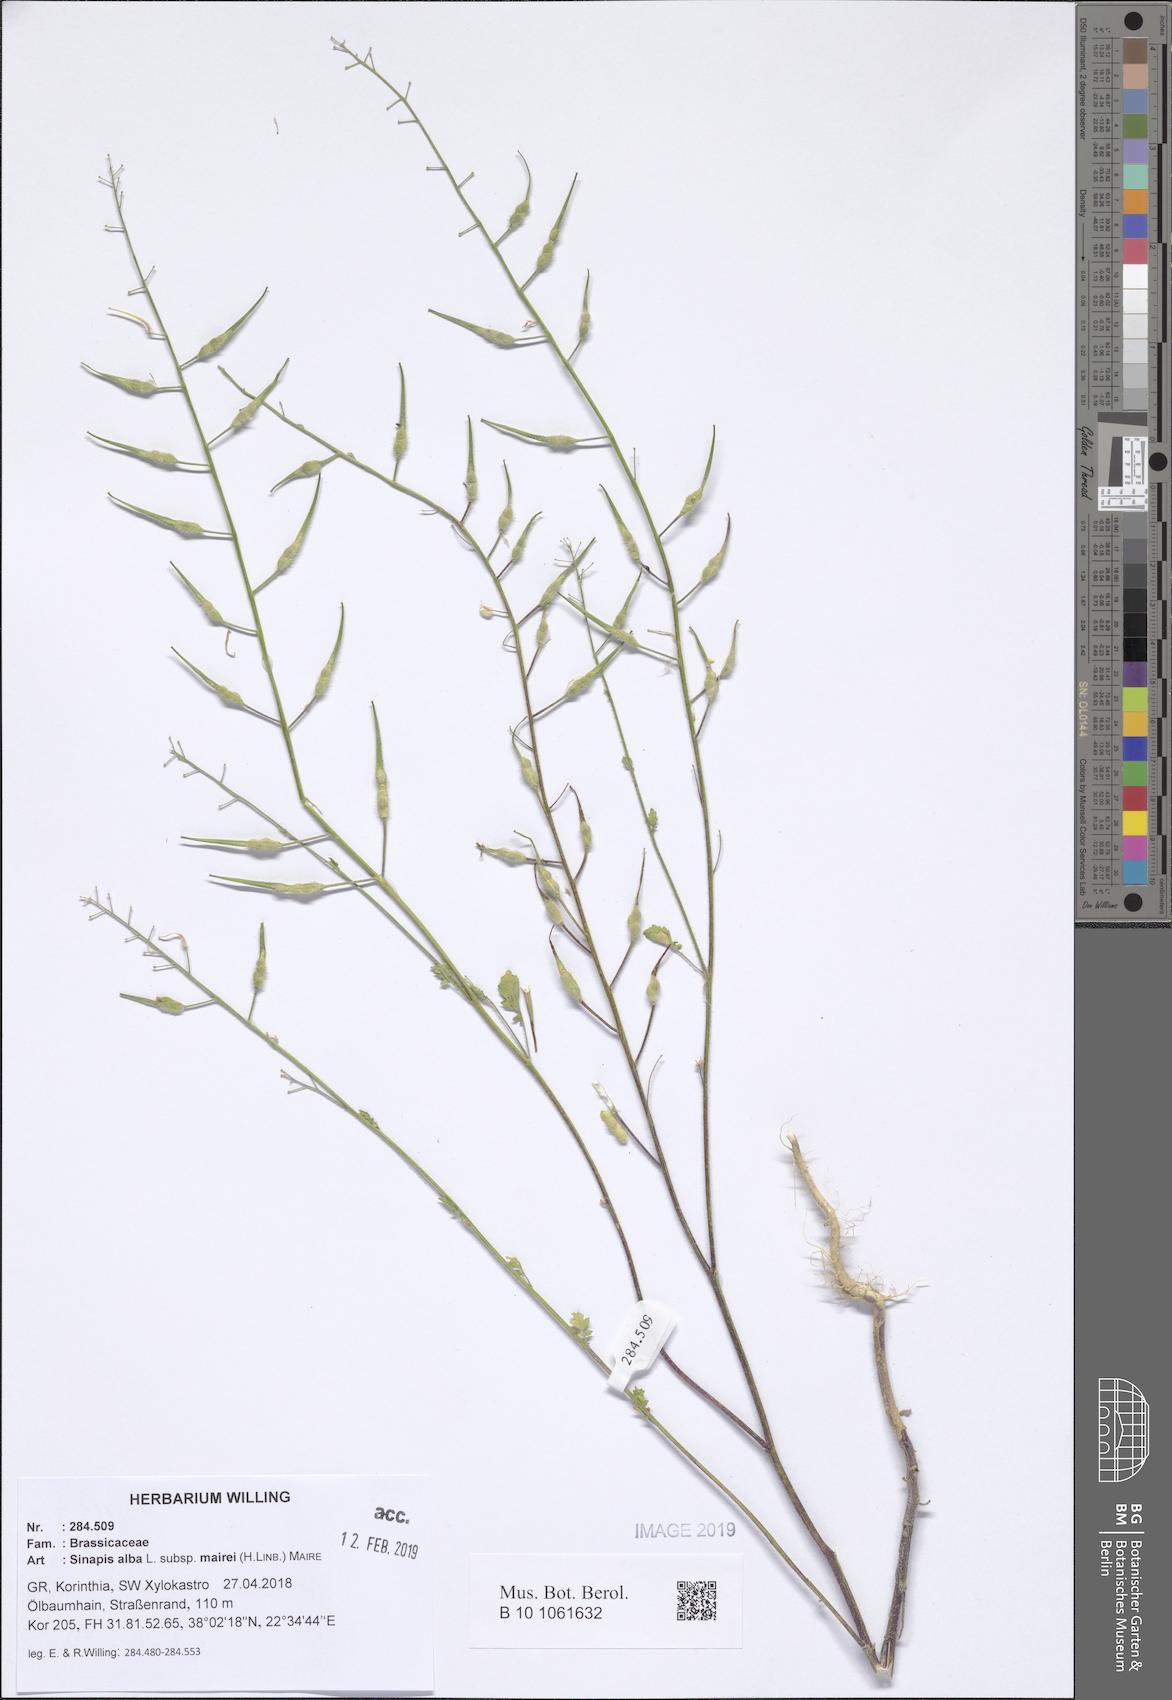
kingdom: Plantae
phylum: Tracheophyta
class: Magnoliopsida
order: Brassicales
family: Brassicaceae
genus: Sinapis
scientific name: Sinapis alba
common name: White mustard
